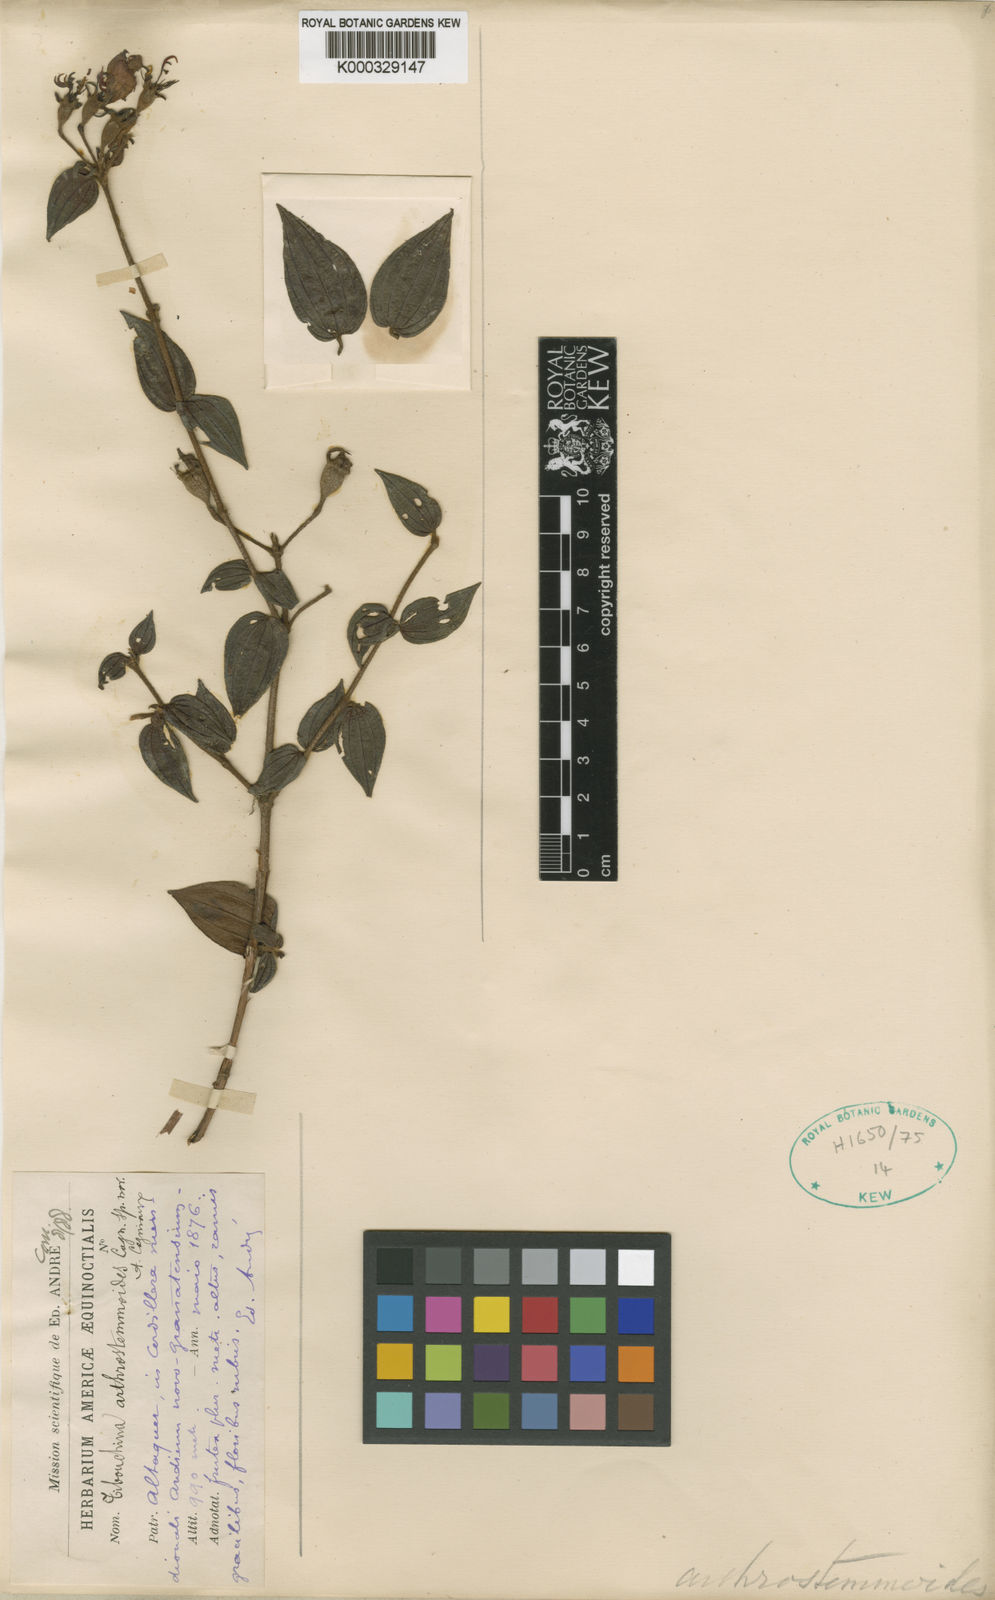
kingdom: Plantae
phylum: Tracheophyta
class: Magnoliopsida
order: Myrtales
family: Melastomataceae
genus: Chaetogastra
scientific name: Chaetogastra arthrostemmoides
